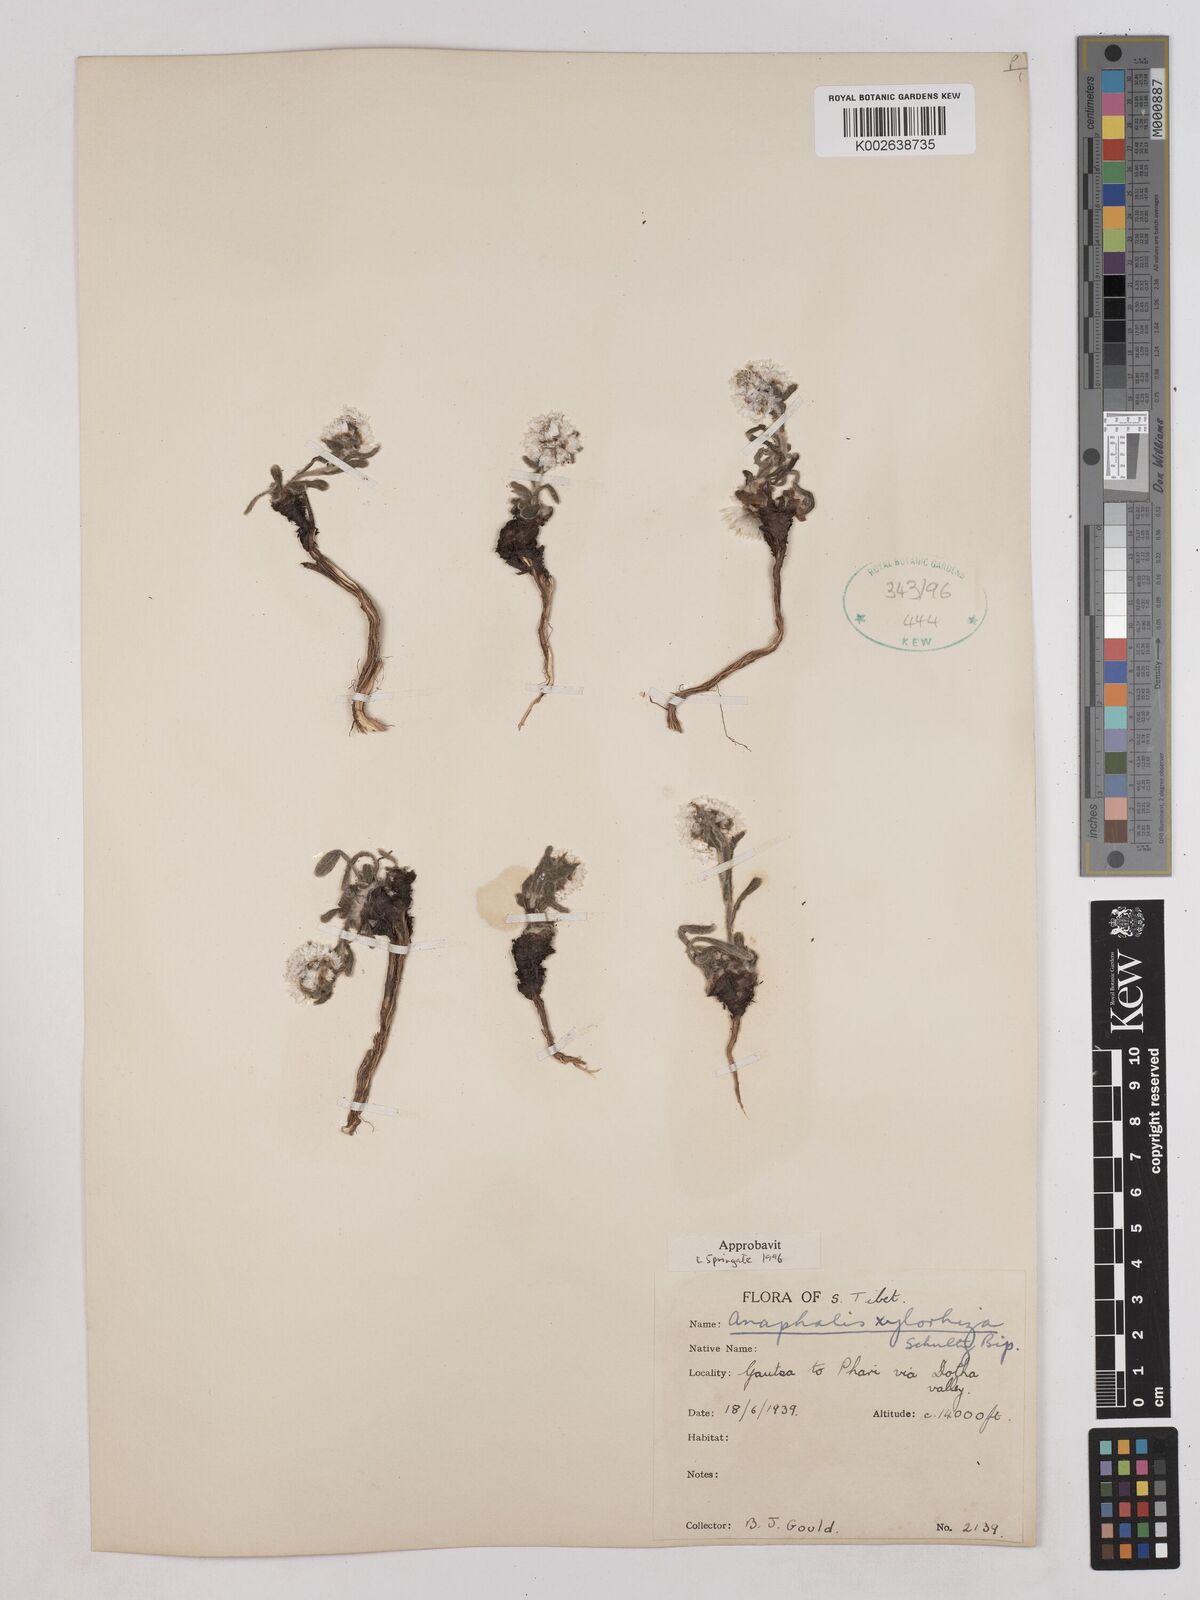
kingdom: Plantae
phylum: Tracheophyta
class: Magnoliopsida
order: Asterales
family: Asteraceae
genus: Anaphalis
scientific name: Anaphalis xylorhiza
